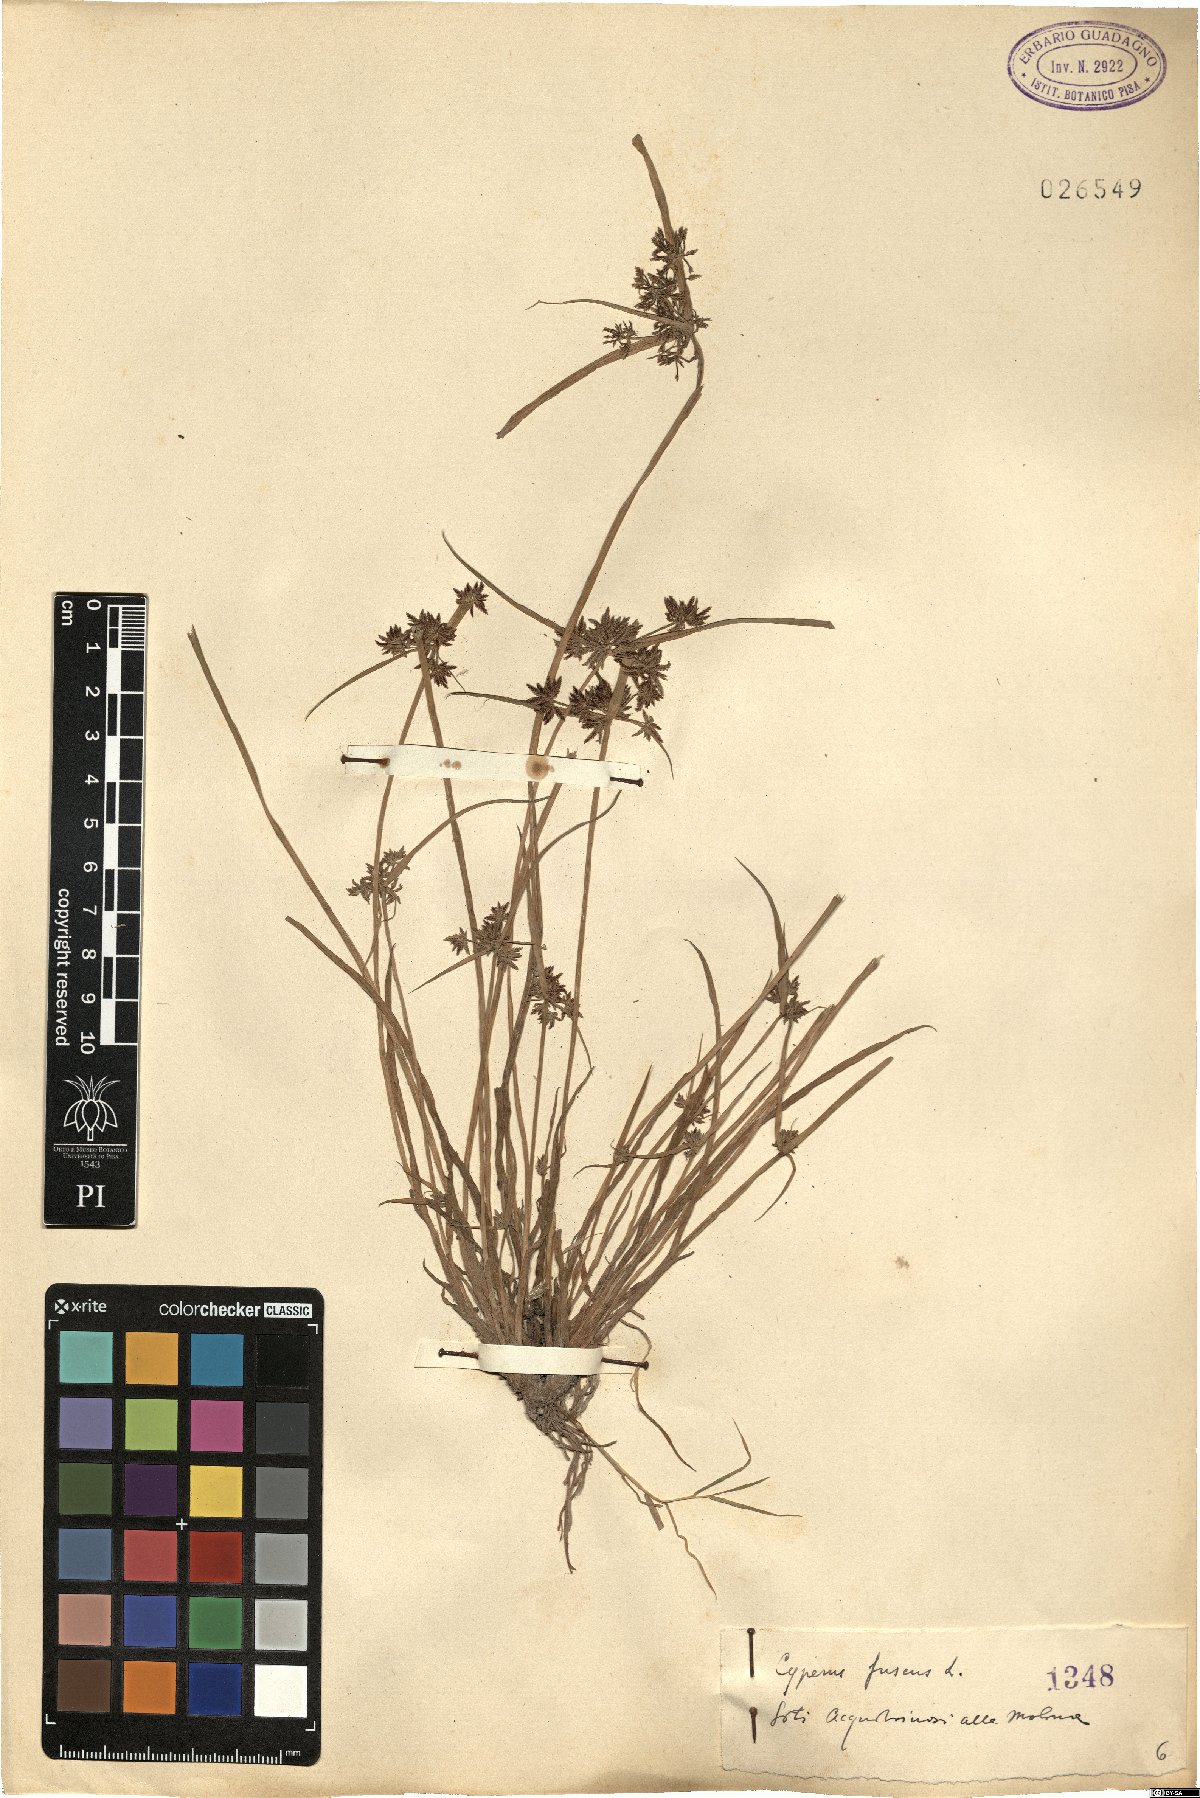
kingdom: Plantae
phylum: Tracheophyta
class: Liliopsida
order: Poales
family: Cyperaceae
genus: Cyperus
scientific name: Cyperus fuscus
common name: Brown galingale
